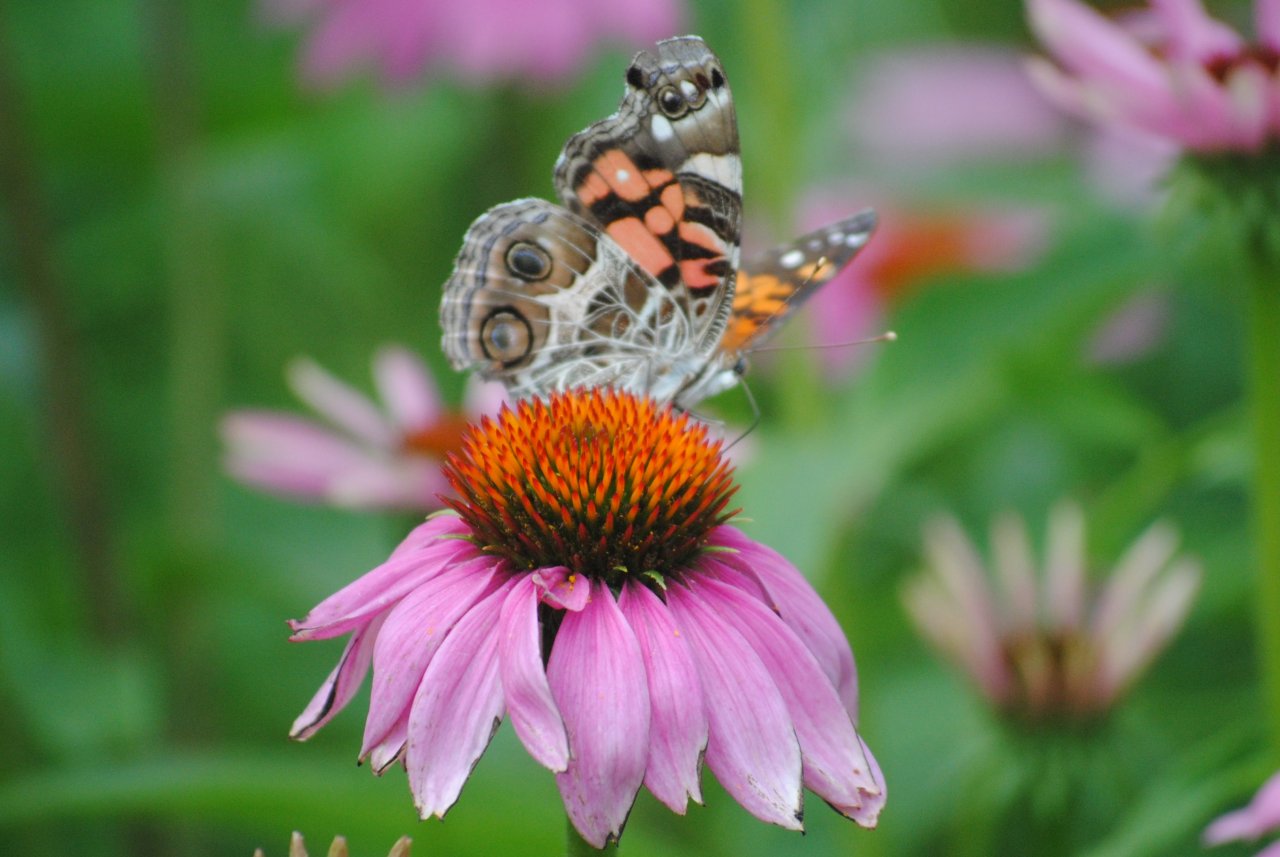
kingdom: Animalia
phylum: Arthropoda
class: Insecta
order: Lepidoptera
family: Nymphalidae
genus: Vanessa
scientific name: Vanessa virginiensis
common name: American Lady
